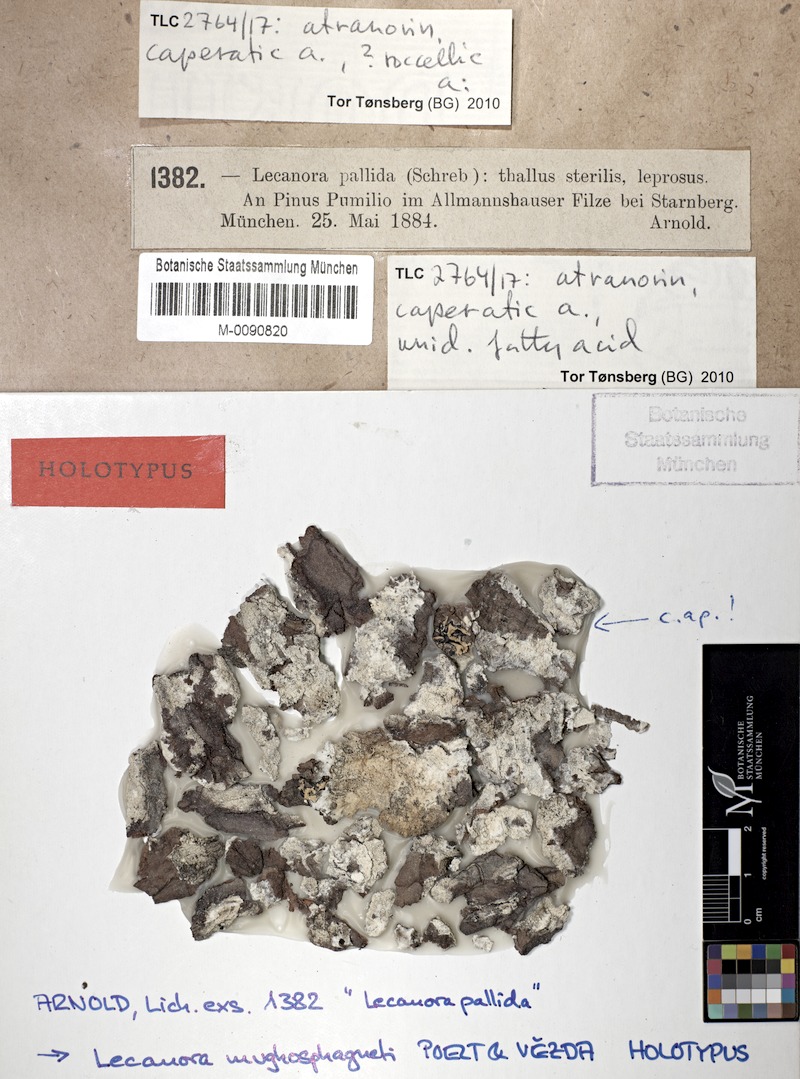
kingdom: Fungi
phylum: Ascomycota
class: Lecanoromycetes
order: Lecanorales
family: Lecanoraceae
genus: Lecanora
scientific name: Lecanora mugosphagneti
